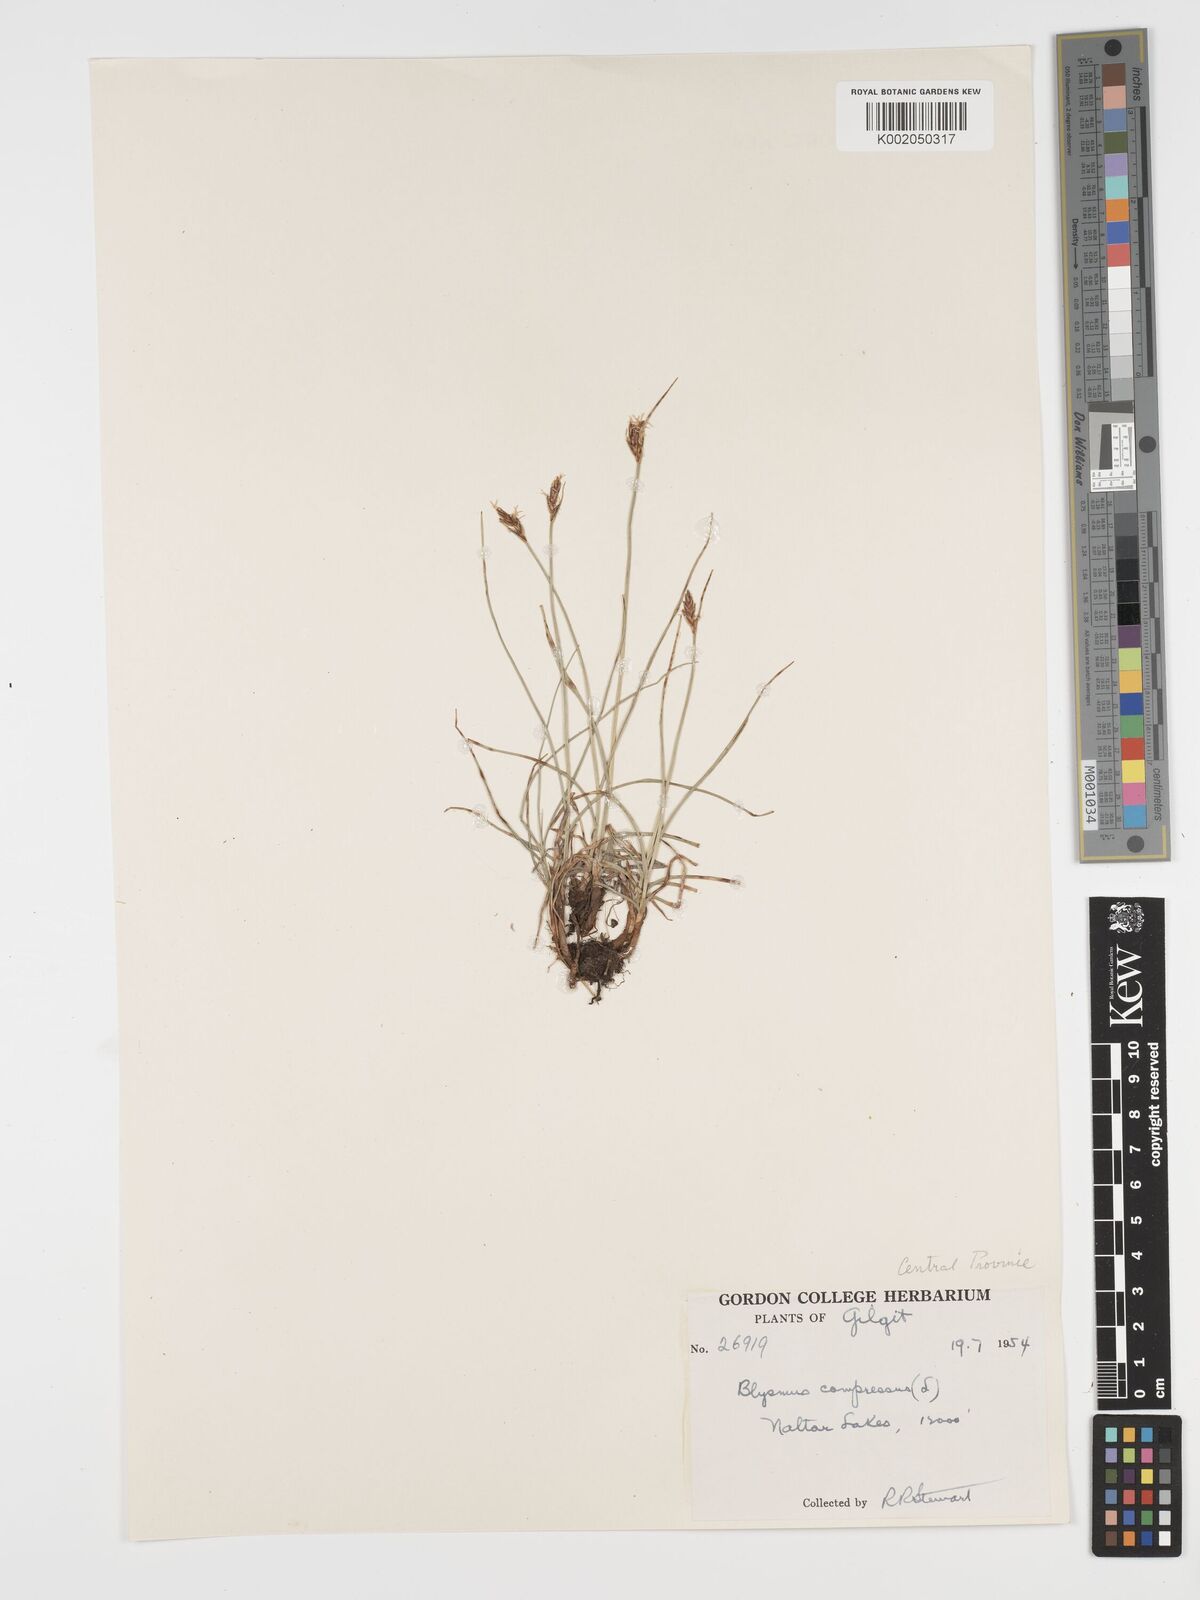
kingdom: Plantae
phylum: Tracheophyta
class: Liliopsida
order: Poales
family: Cyperaceae
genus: Blysmus
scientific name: Blysmus compressus
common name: Flat-sedge
